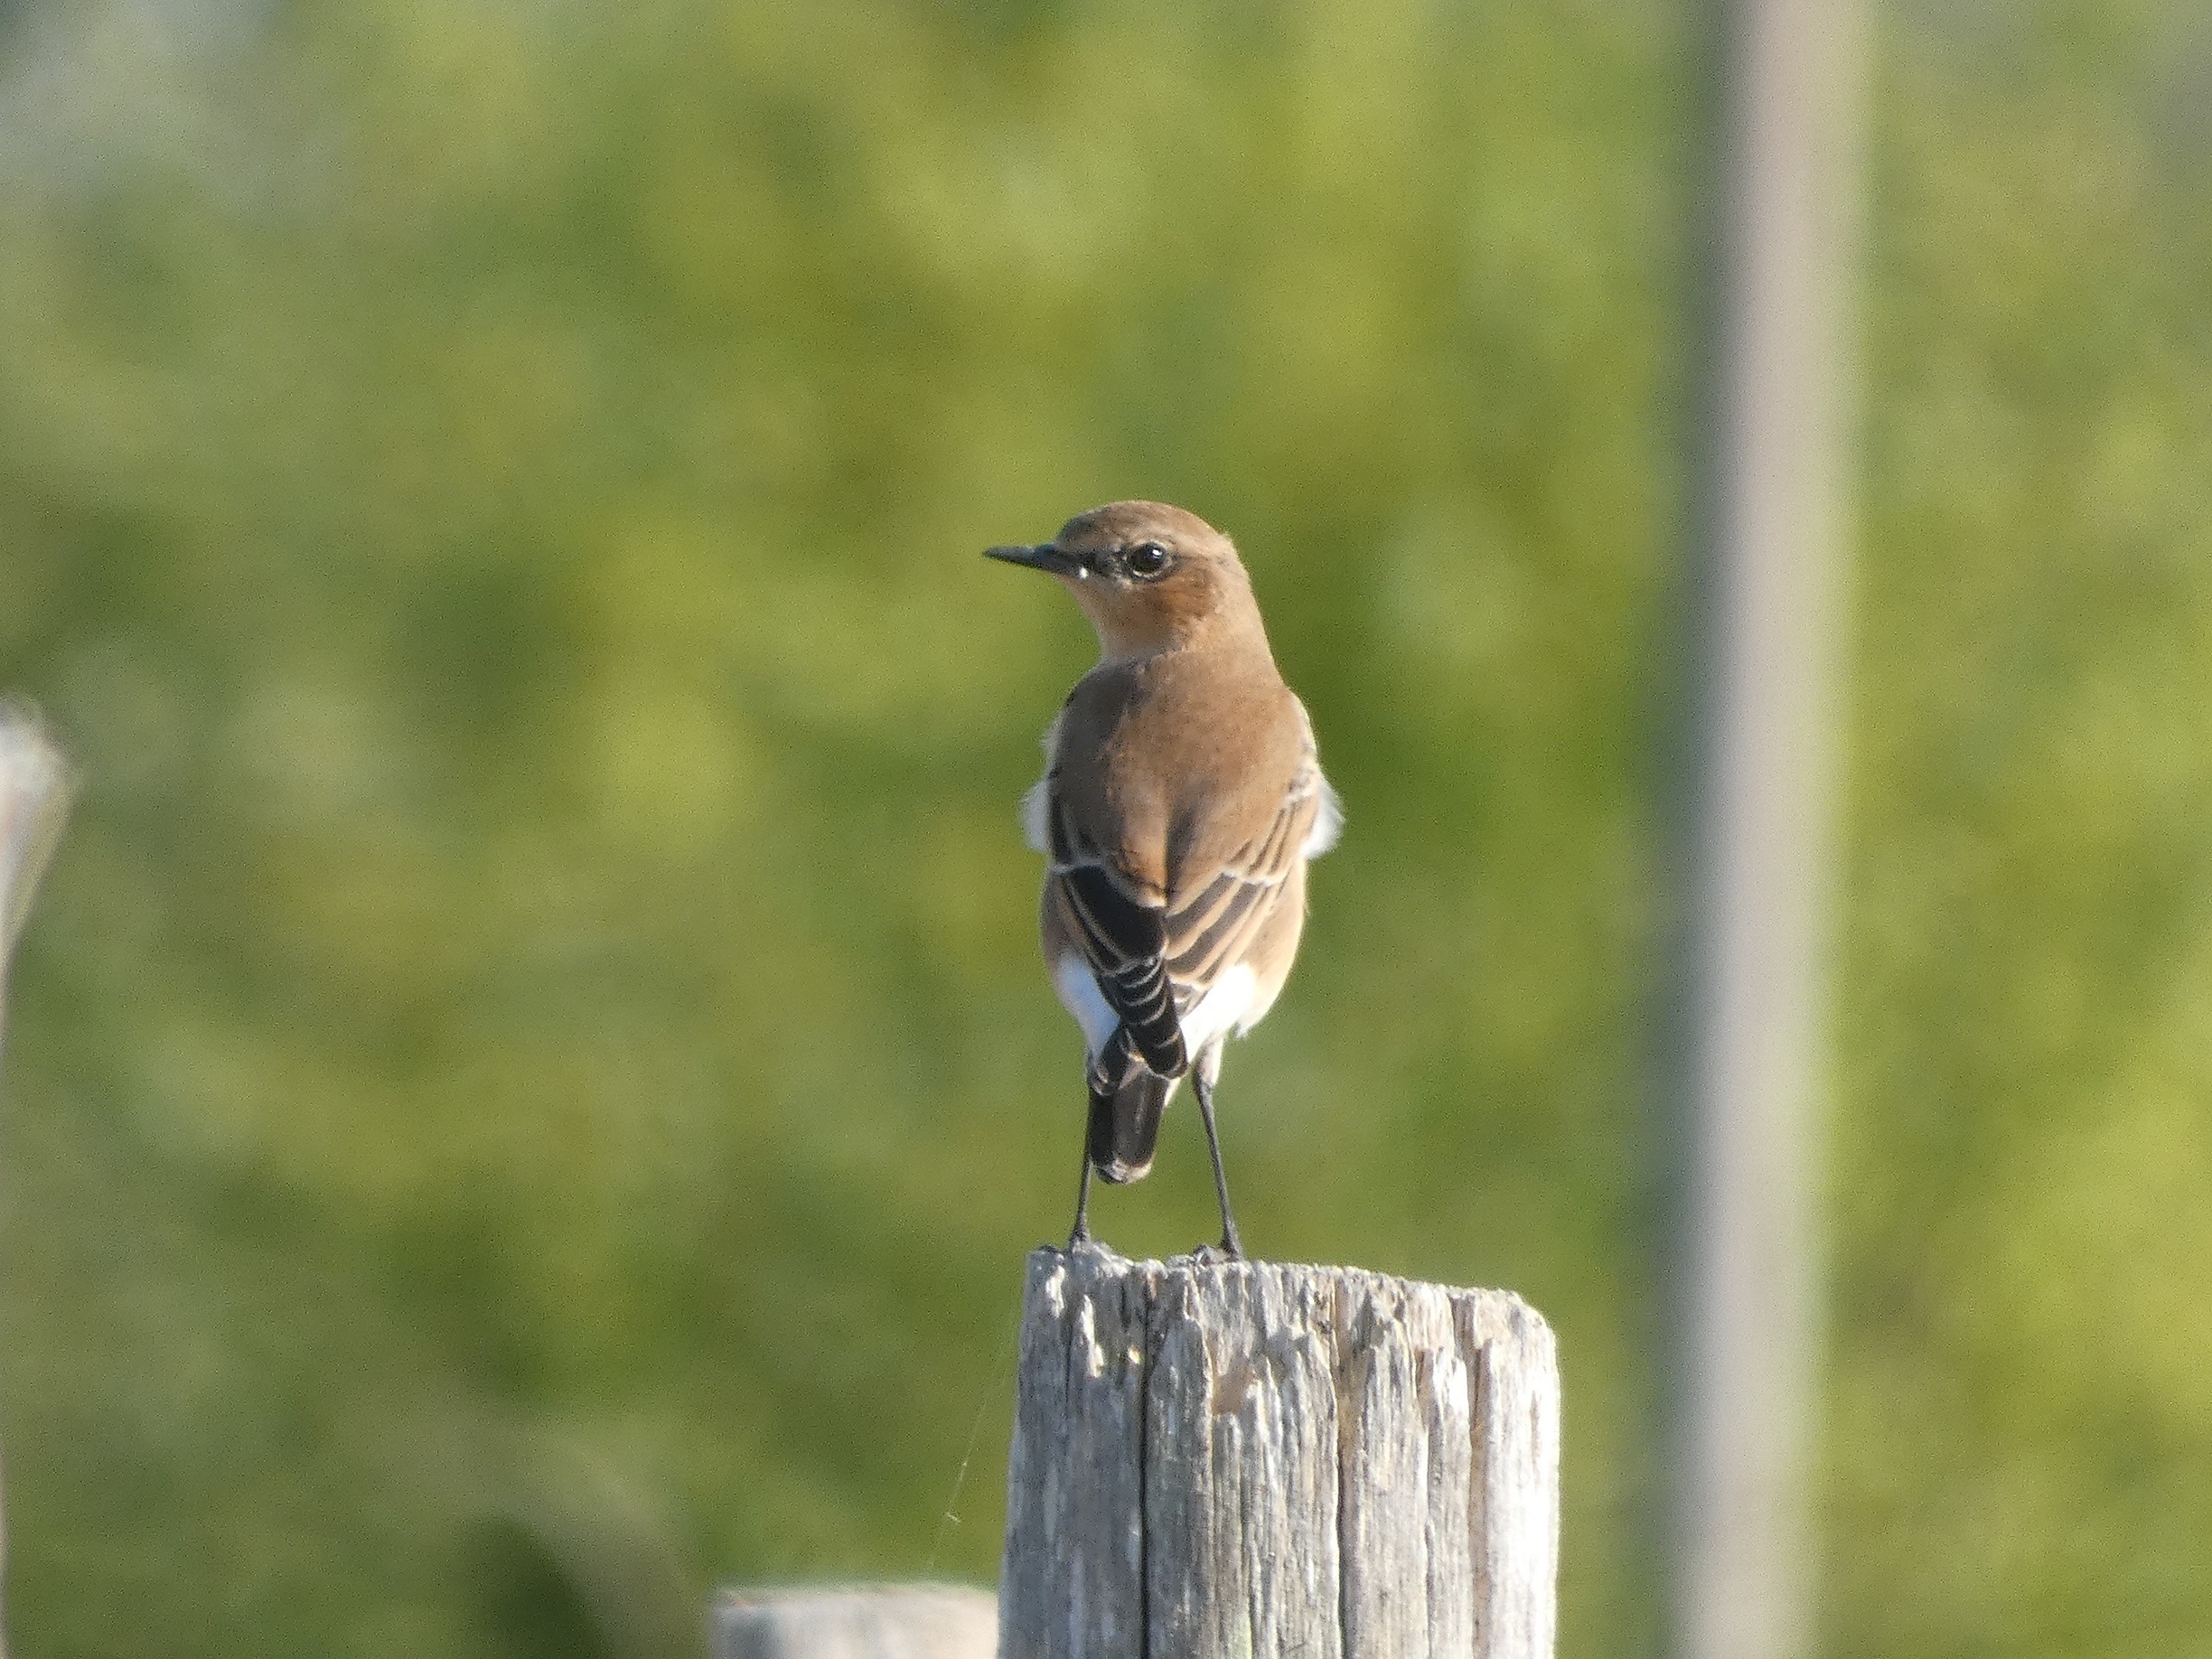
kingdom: Animalia
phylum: Chordata
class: Aves
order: Passeriformes
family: Muscicapidae
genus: Oenanthe
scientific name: Oenanthe oenanthe
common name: Stenpikker
